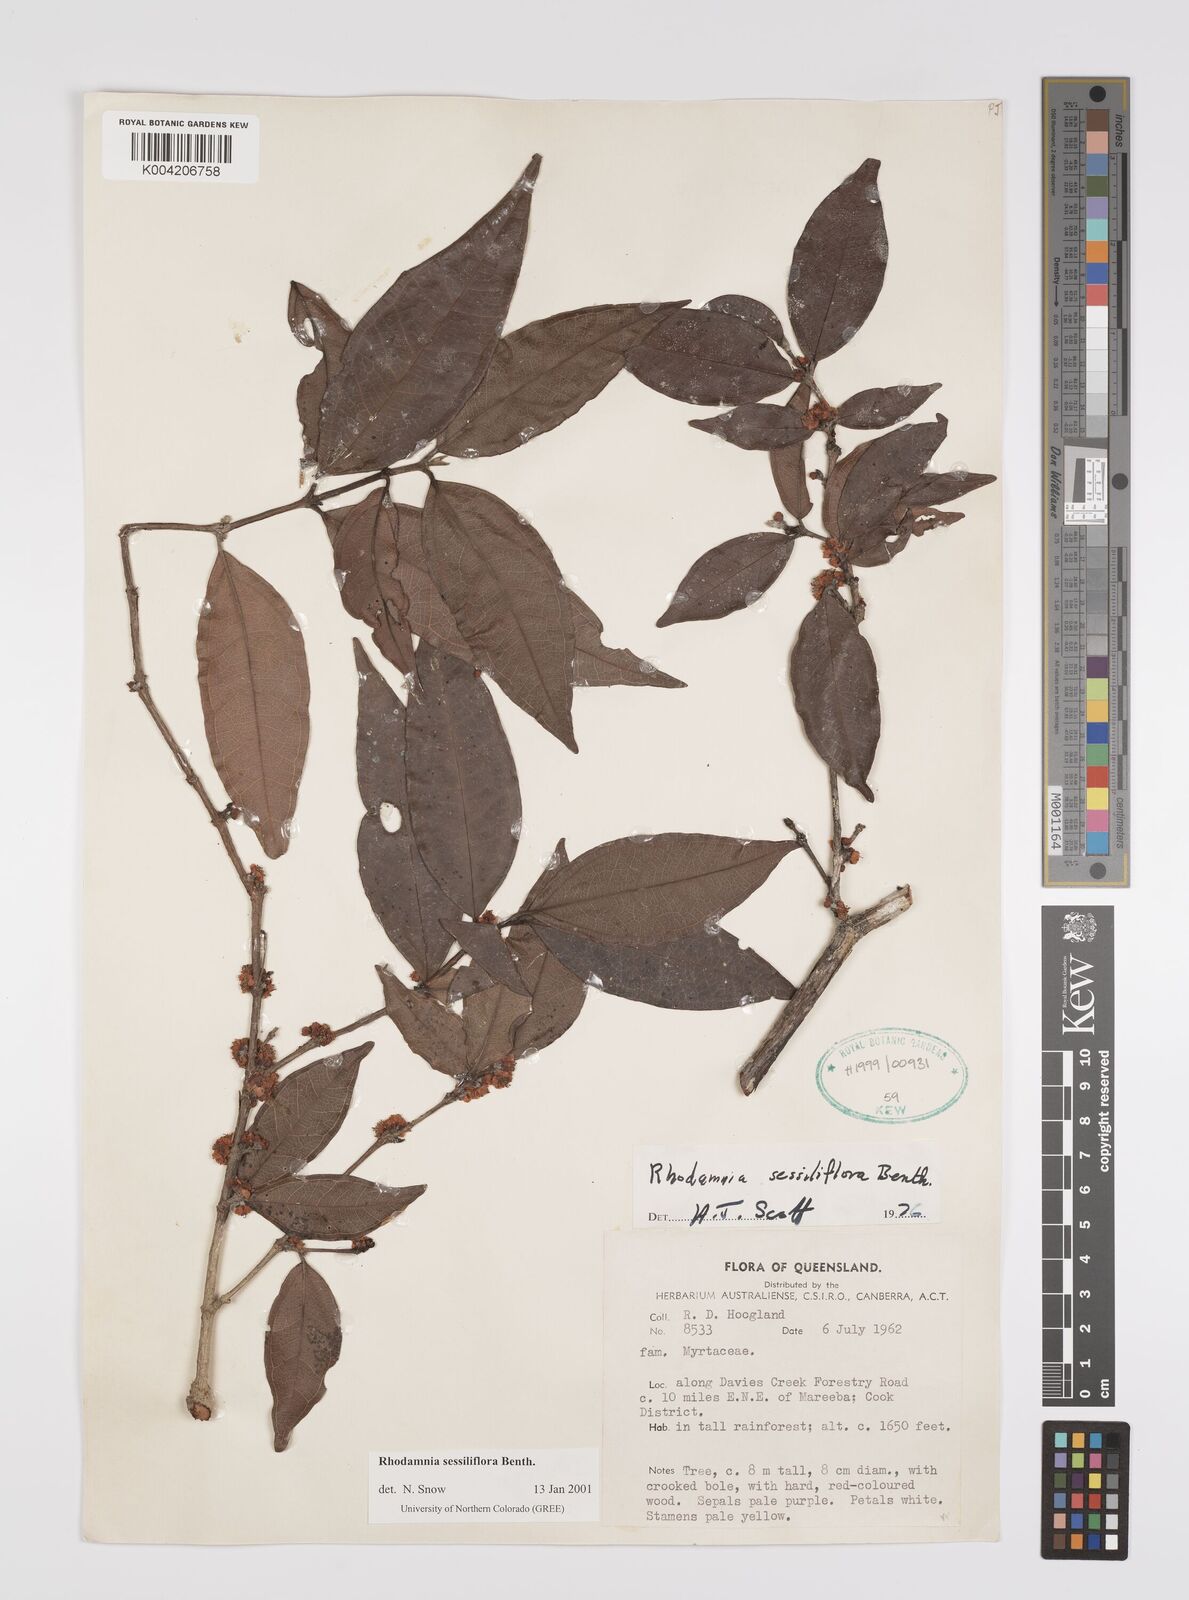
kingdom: Plantae
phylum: Tracheophyta
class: Magnoliopsida
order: Myrtales
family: Myrtaceae
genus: Rhodamnia
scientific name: Rhodamnia sessiliflora
